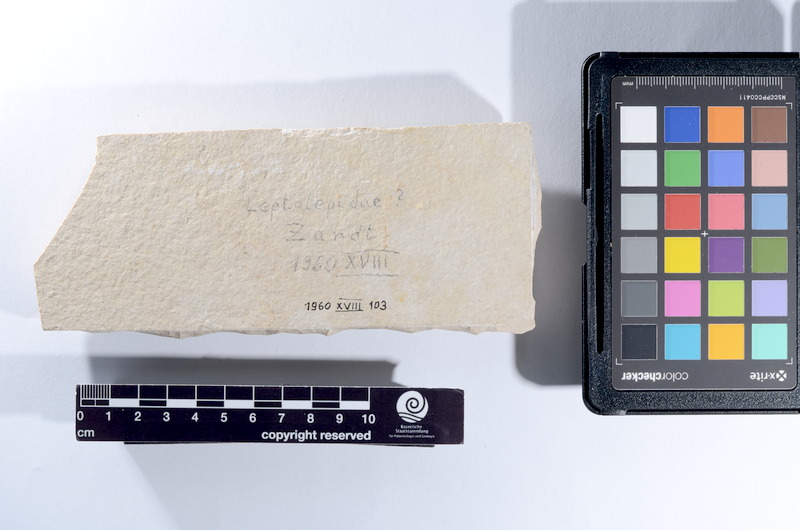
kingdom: Animalia
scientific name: Animalia
